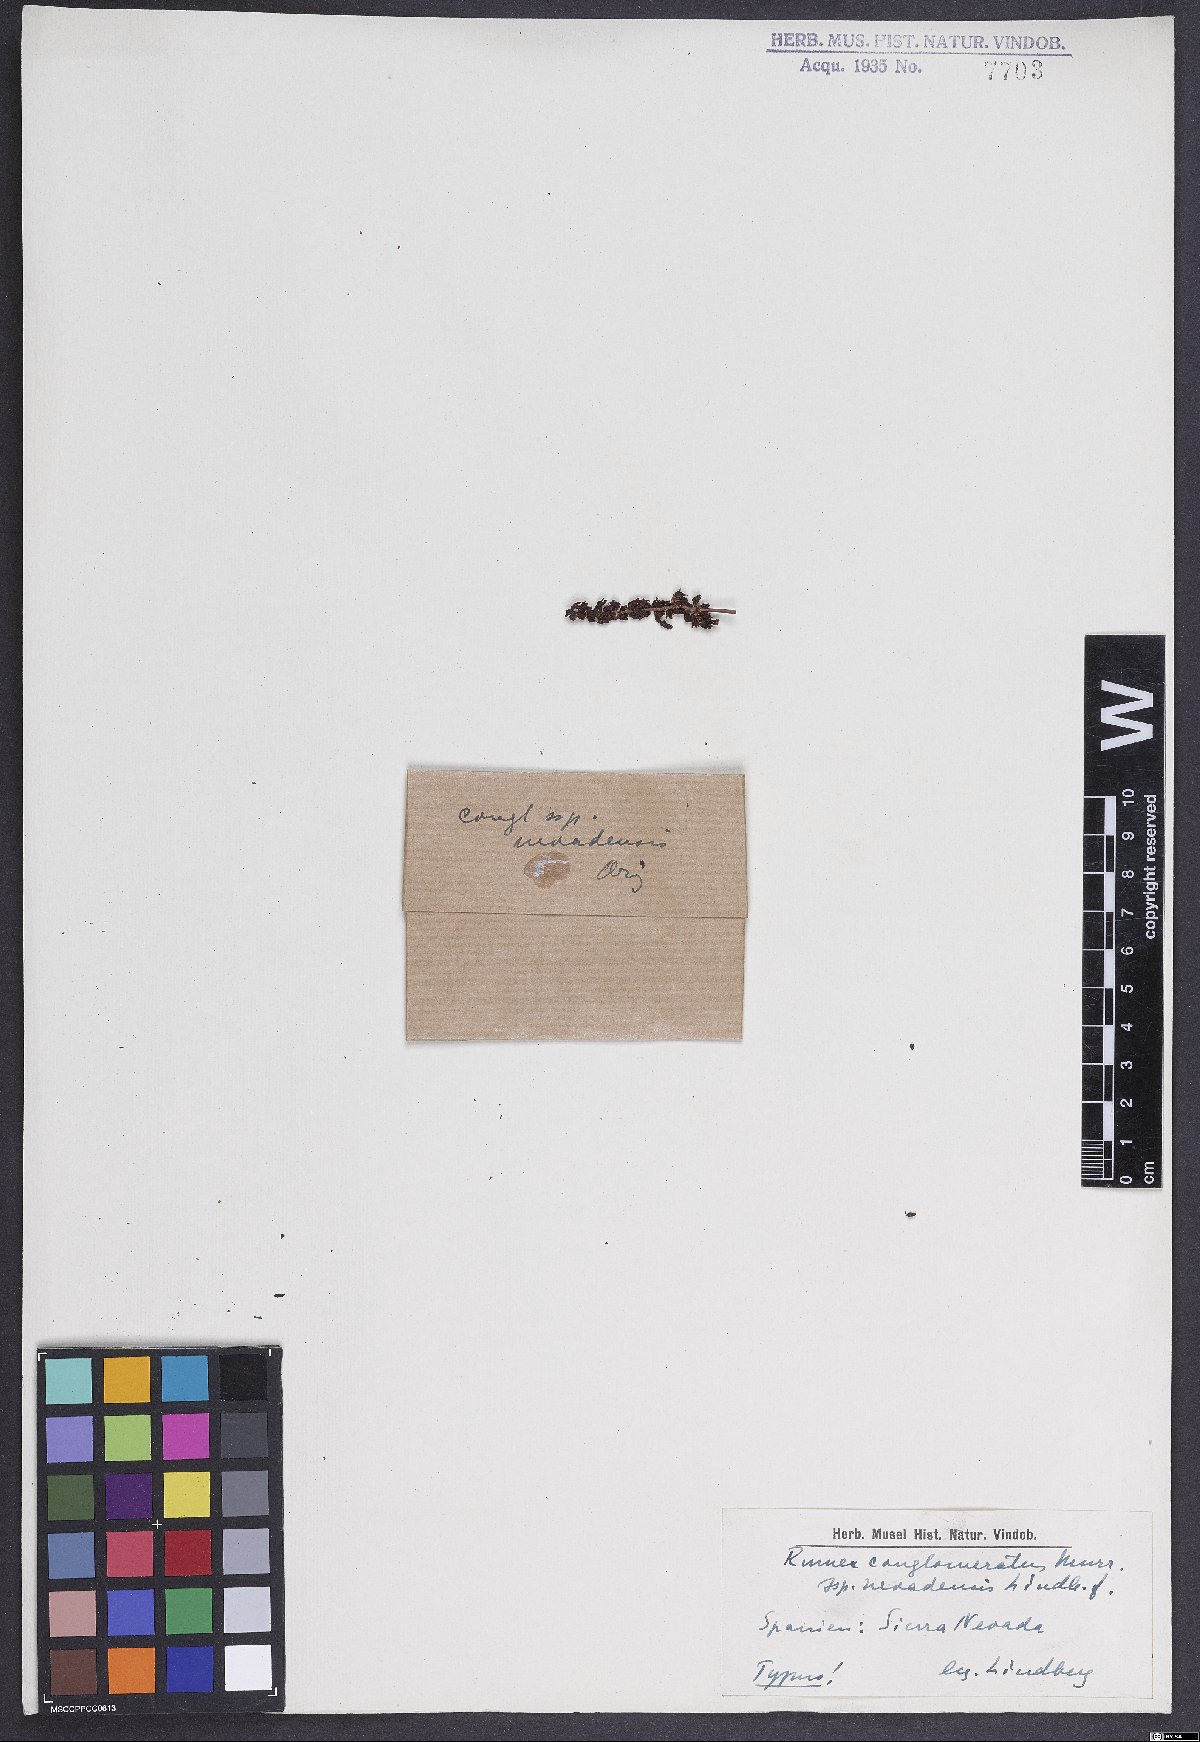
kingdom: Plantae
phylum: Tracheophyta
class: Magnoliopsida
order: Caryophyllales
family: Polygonaceae
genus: Rumex
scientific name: Rumex conglomeratus
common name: Clustered dock
